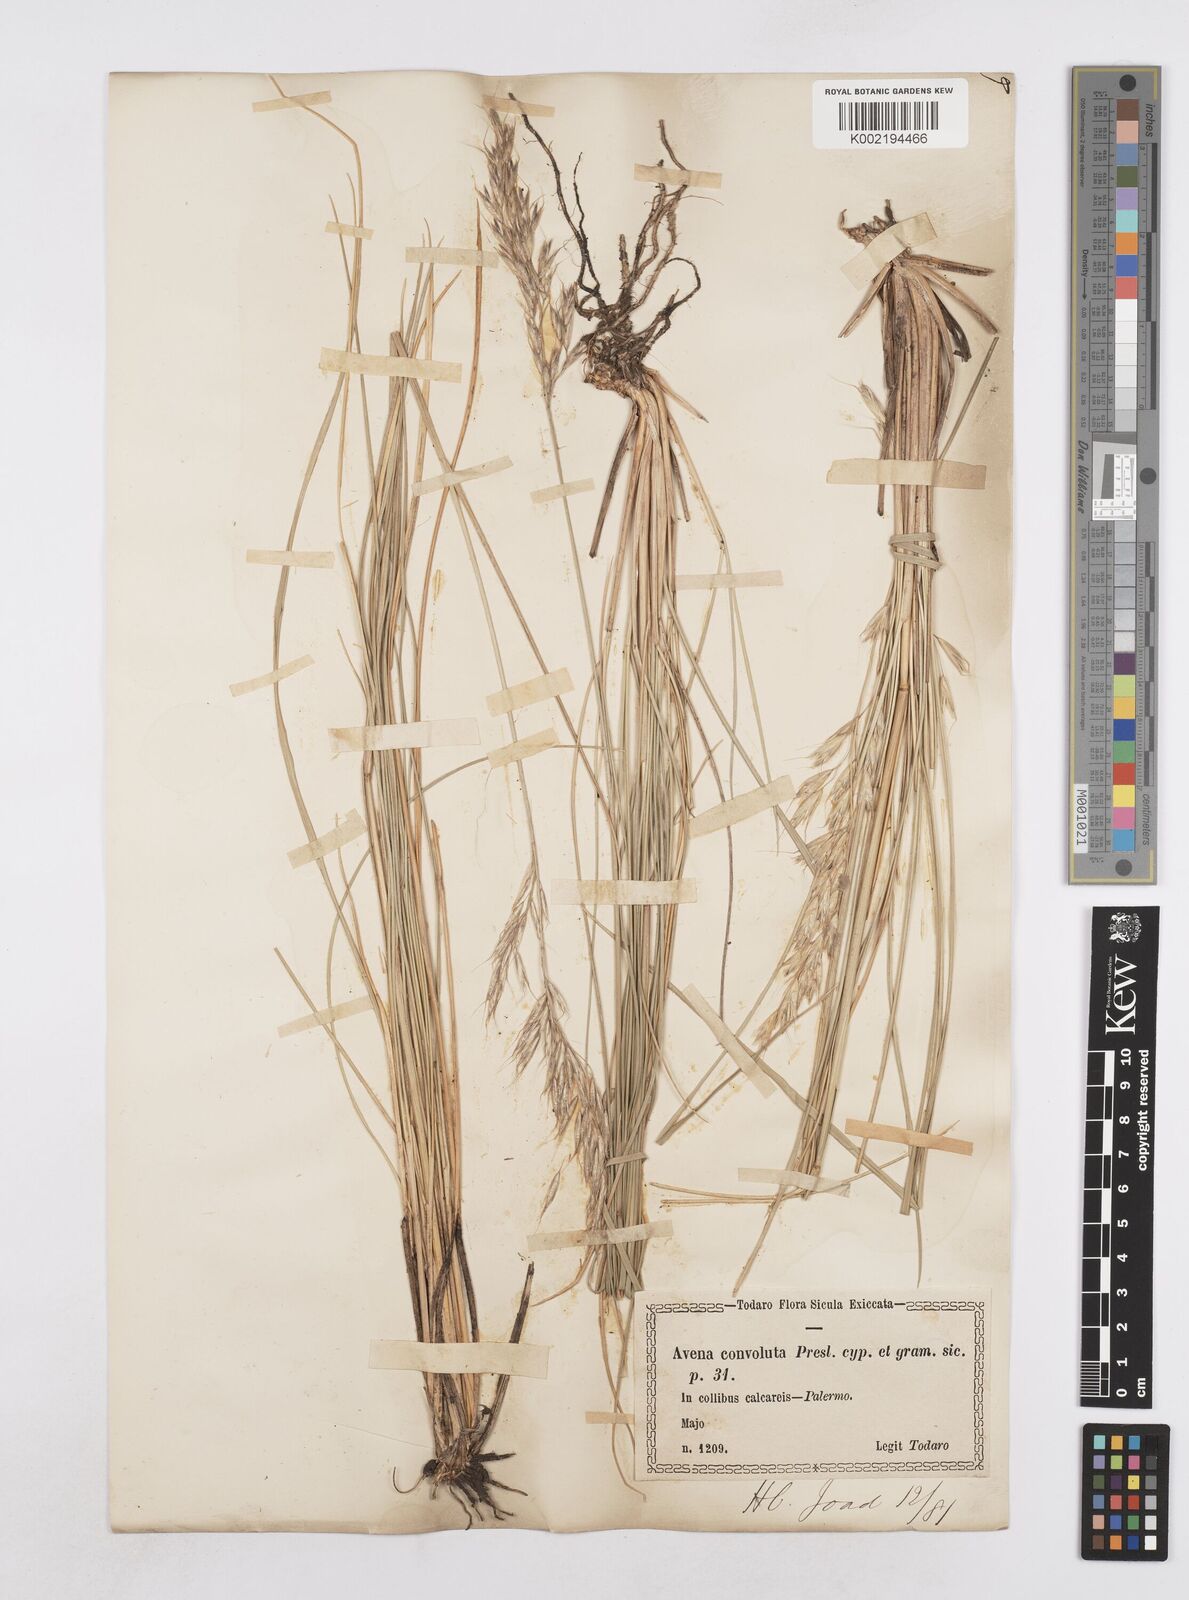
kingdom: Plantae
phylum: Tracheophyta
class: Liliopsida
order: Poales
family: Poaceae
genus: Helictotrichon
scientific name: Helictotrichon convolutum
